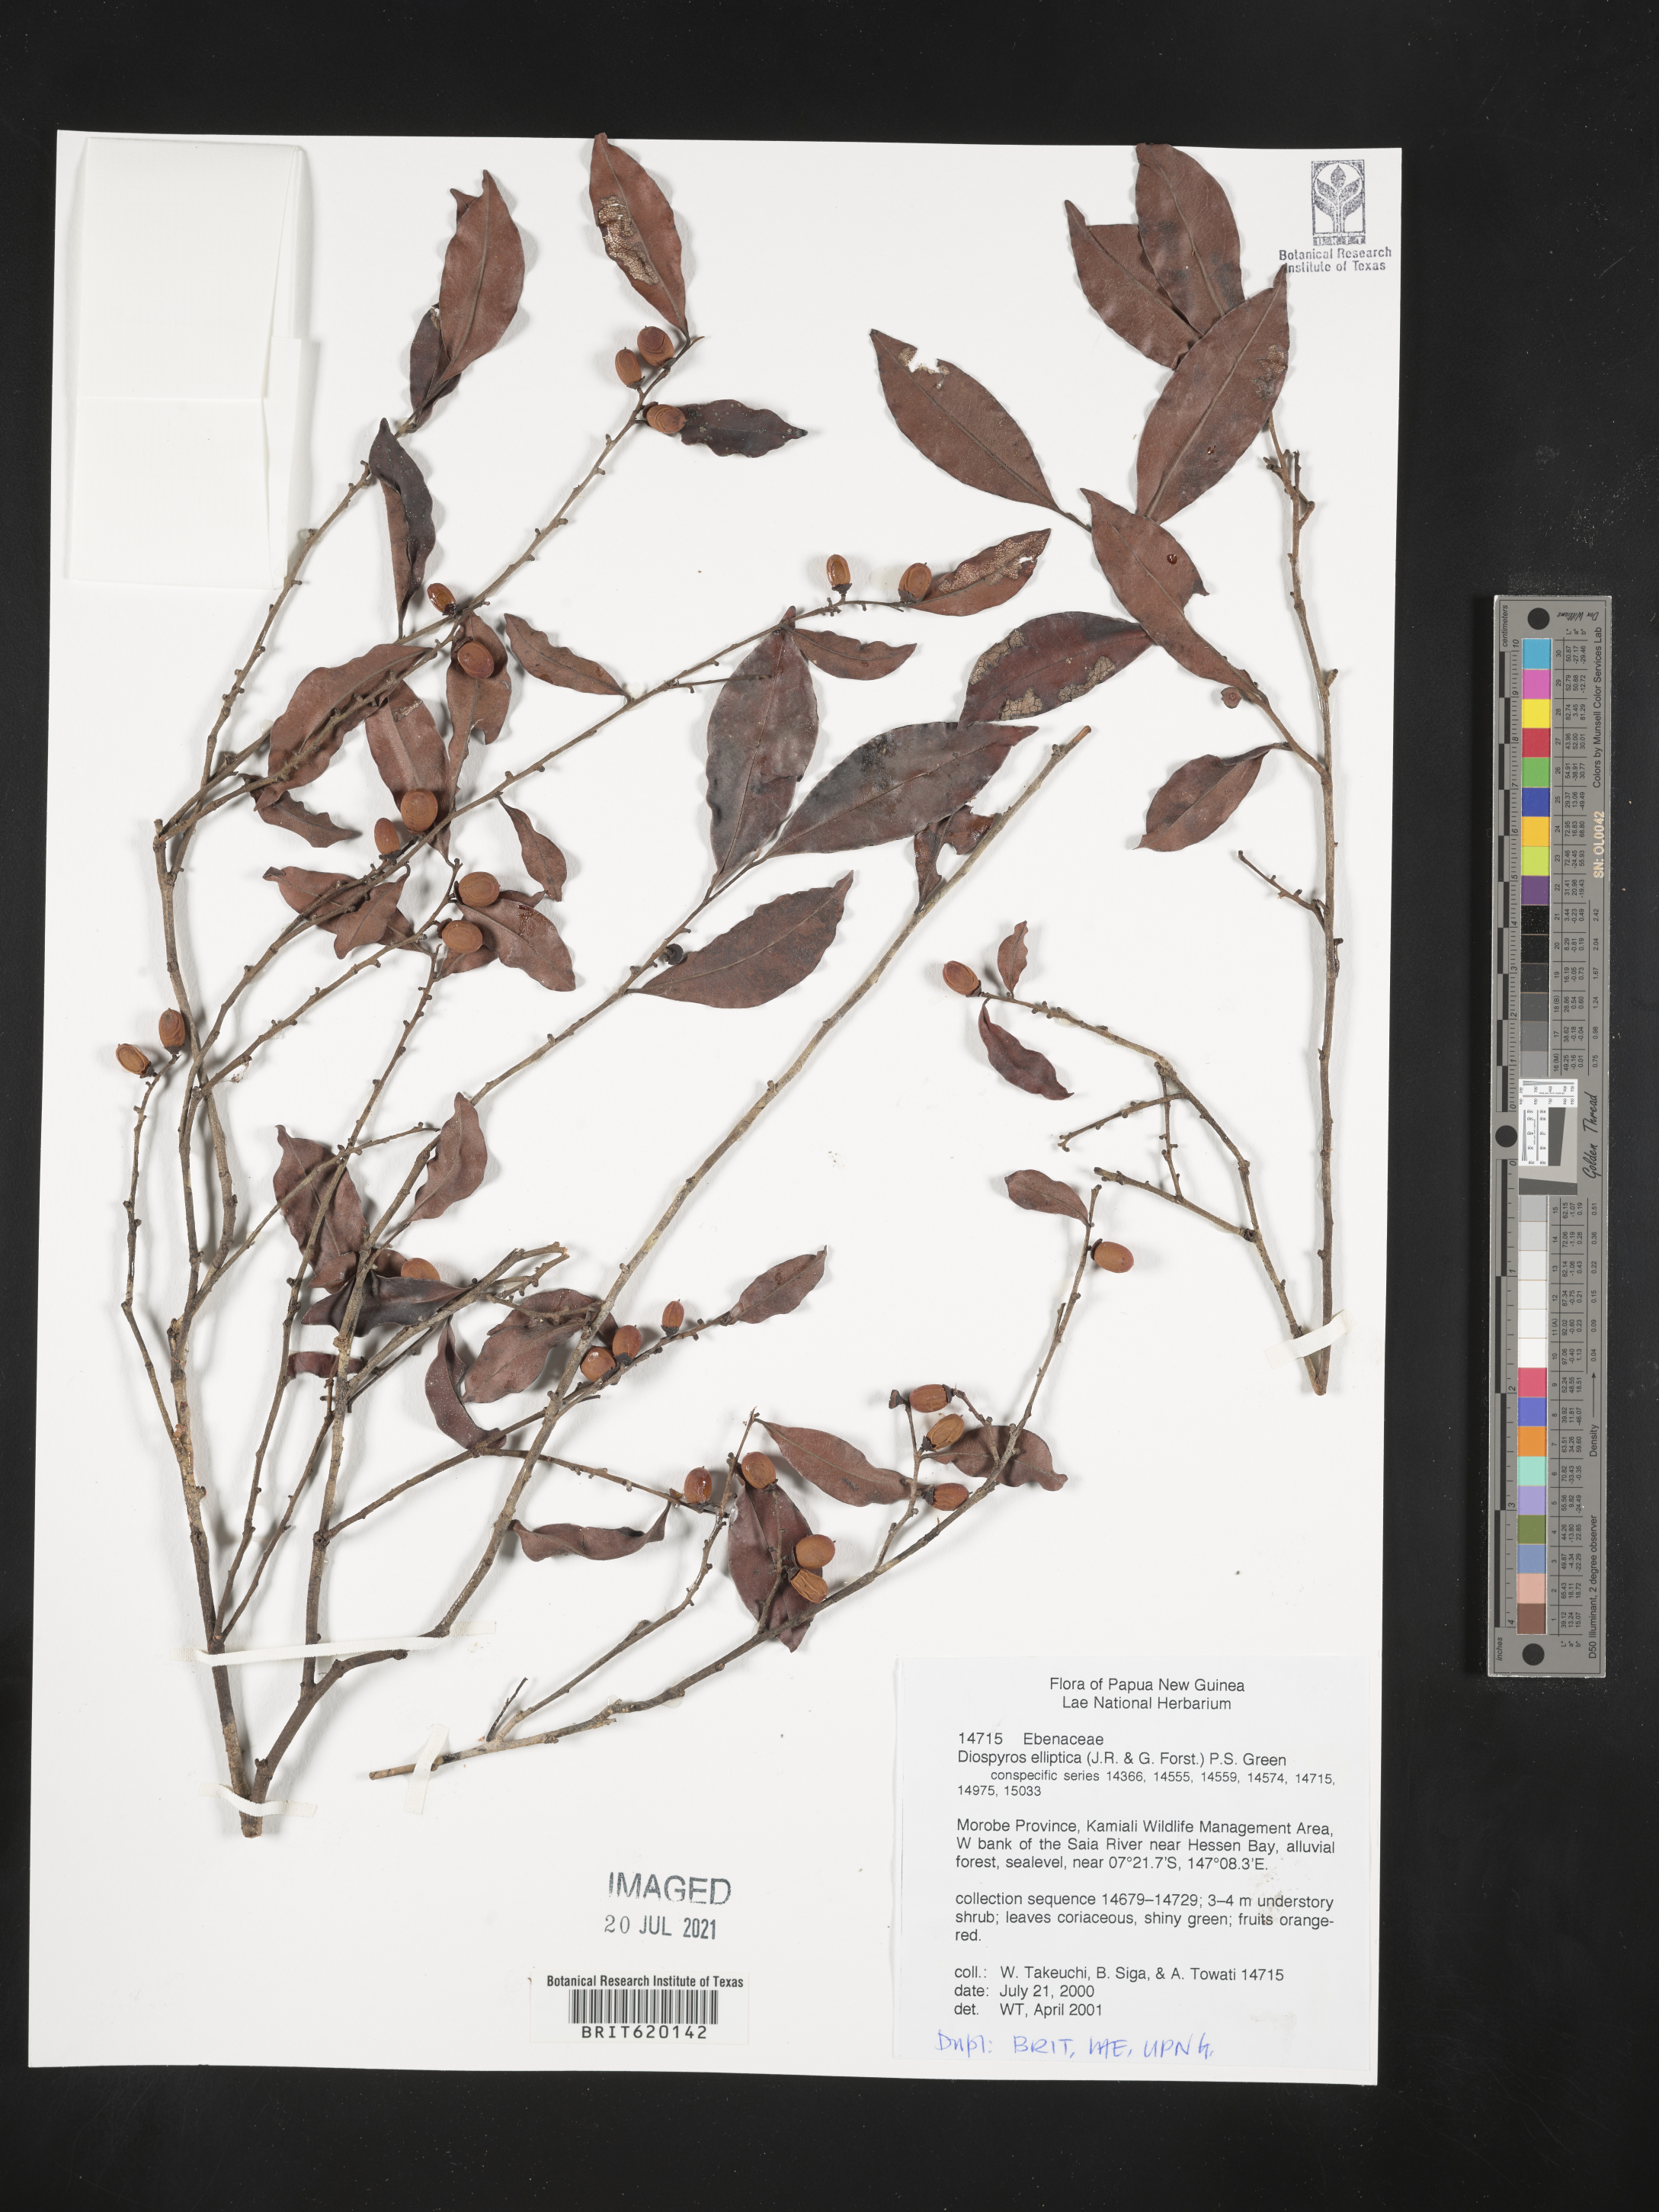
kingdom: Plantae
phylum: Tracheophyta
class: Magnoliopsida
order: Ericales
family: Ebenaceae
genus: Diospyros
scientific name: Diospyros elliptica
